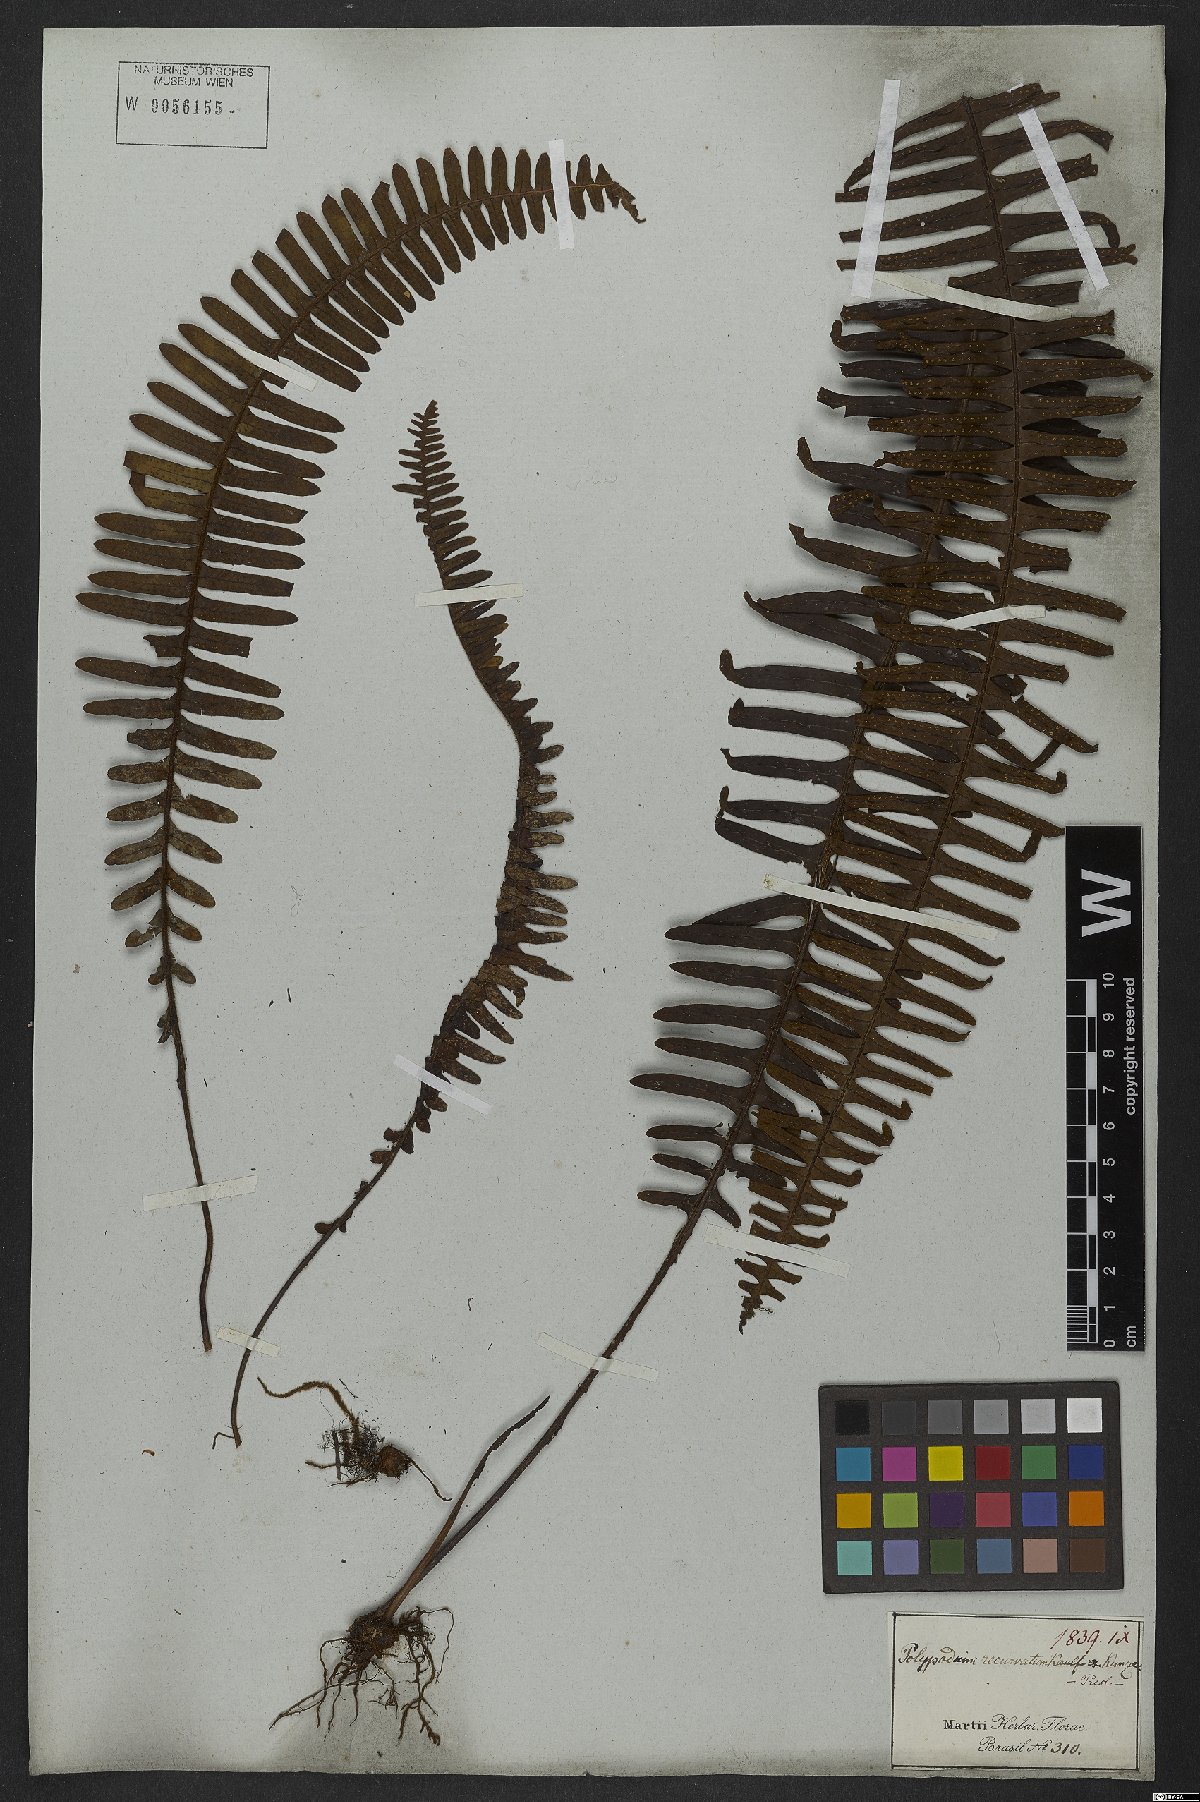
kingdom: Plantae
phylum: Tracheophyta
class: Polypodiopsida
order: Polypodiales
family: Polypodiaceae
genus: Pecluma
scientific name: Pecluma pectinata
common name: Msasa fern
